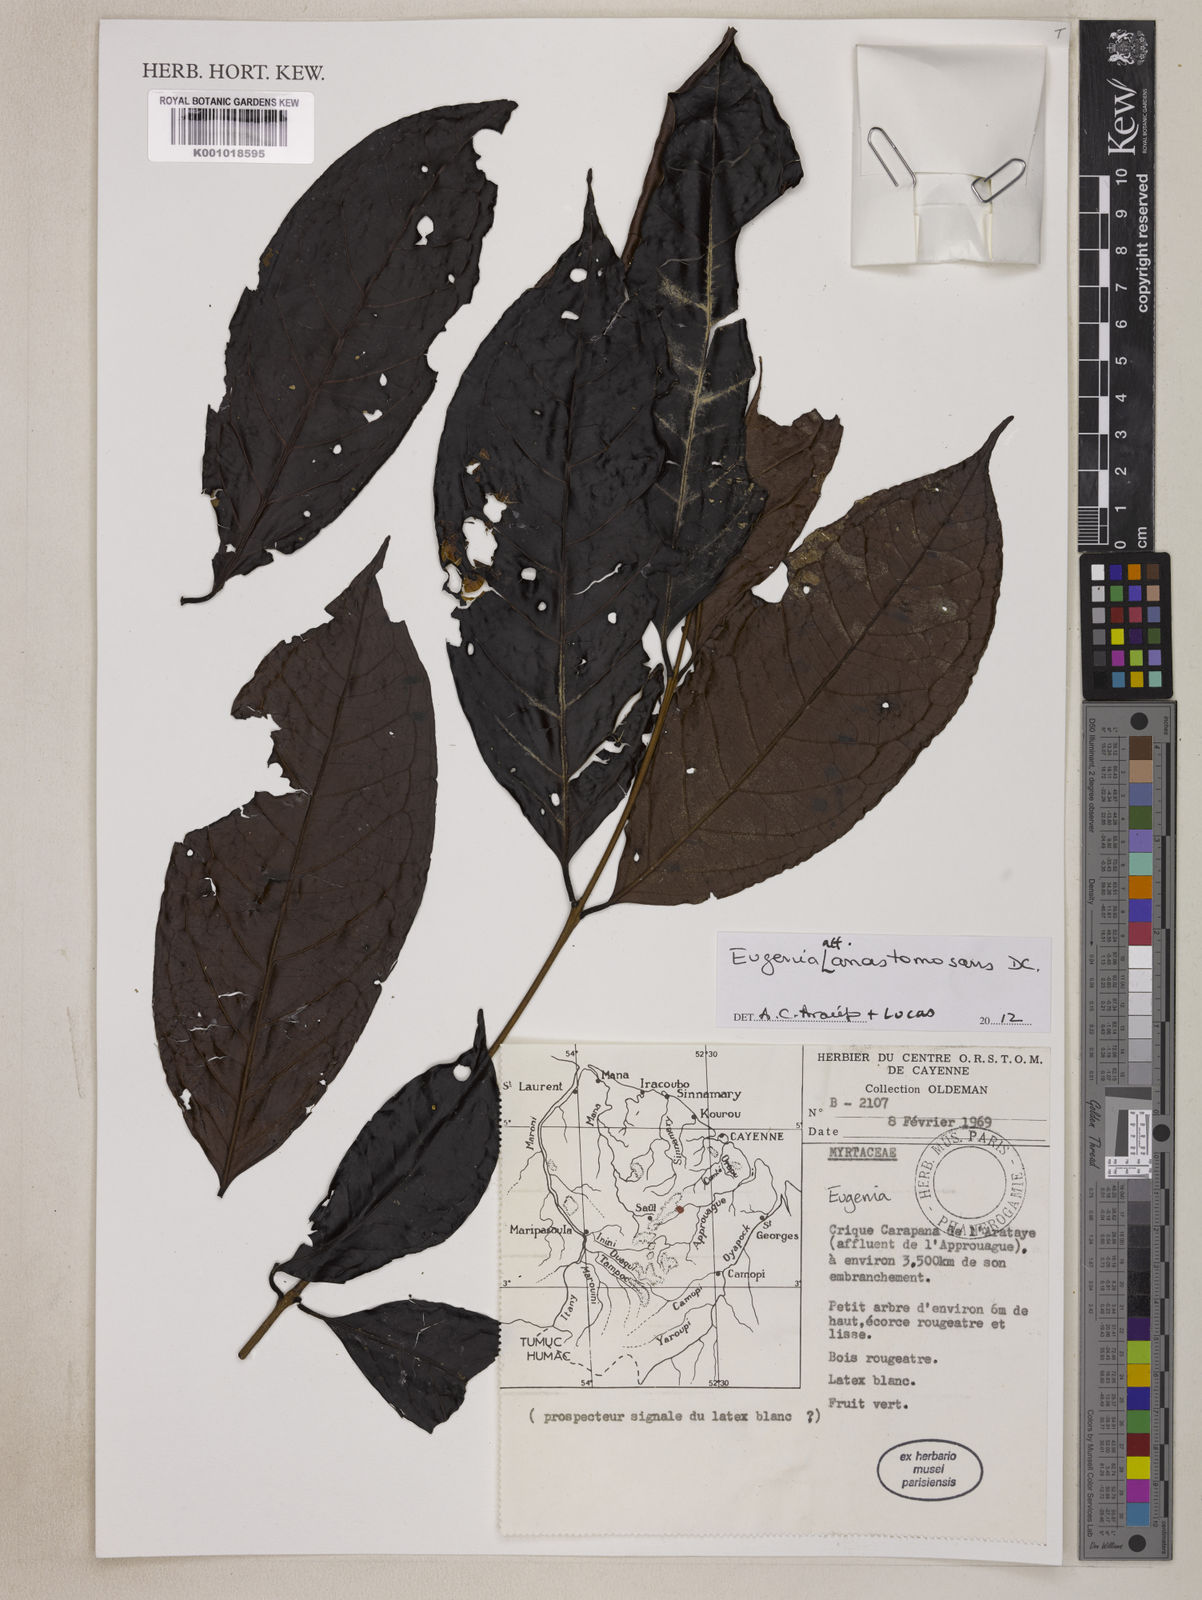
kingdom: Plantae
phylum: Tracheophyta
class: Magnoliopsida
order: Myrtales
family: Myrtaceae
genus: Eugenia
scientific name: Eugenia anastomosans
